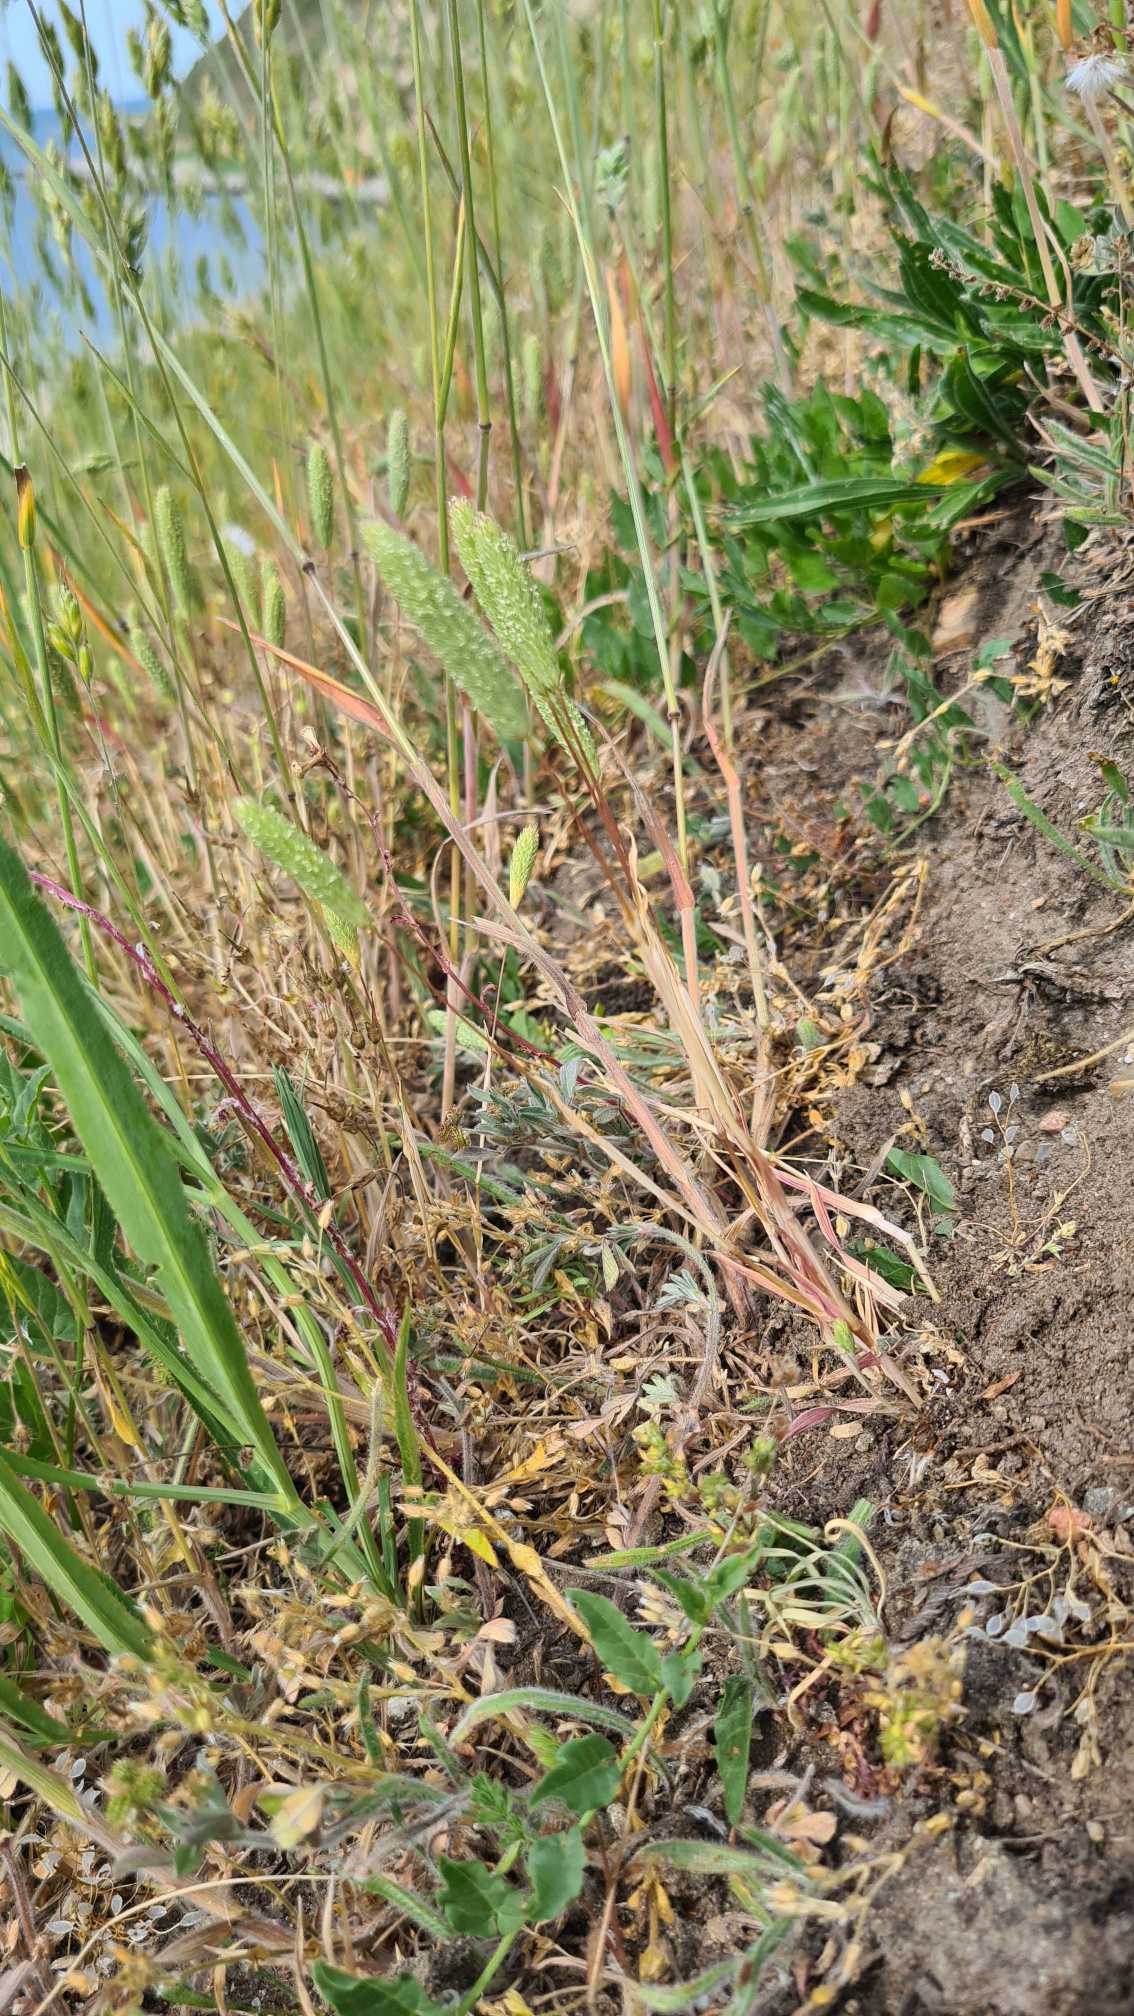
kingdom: Plantae
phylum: Tracheophyta
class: Liliopsida
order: Poales
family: Poaceae
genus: Phleum
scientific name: Phleum arenarium
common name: Sand-rottehale
